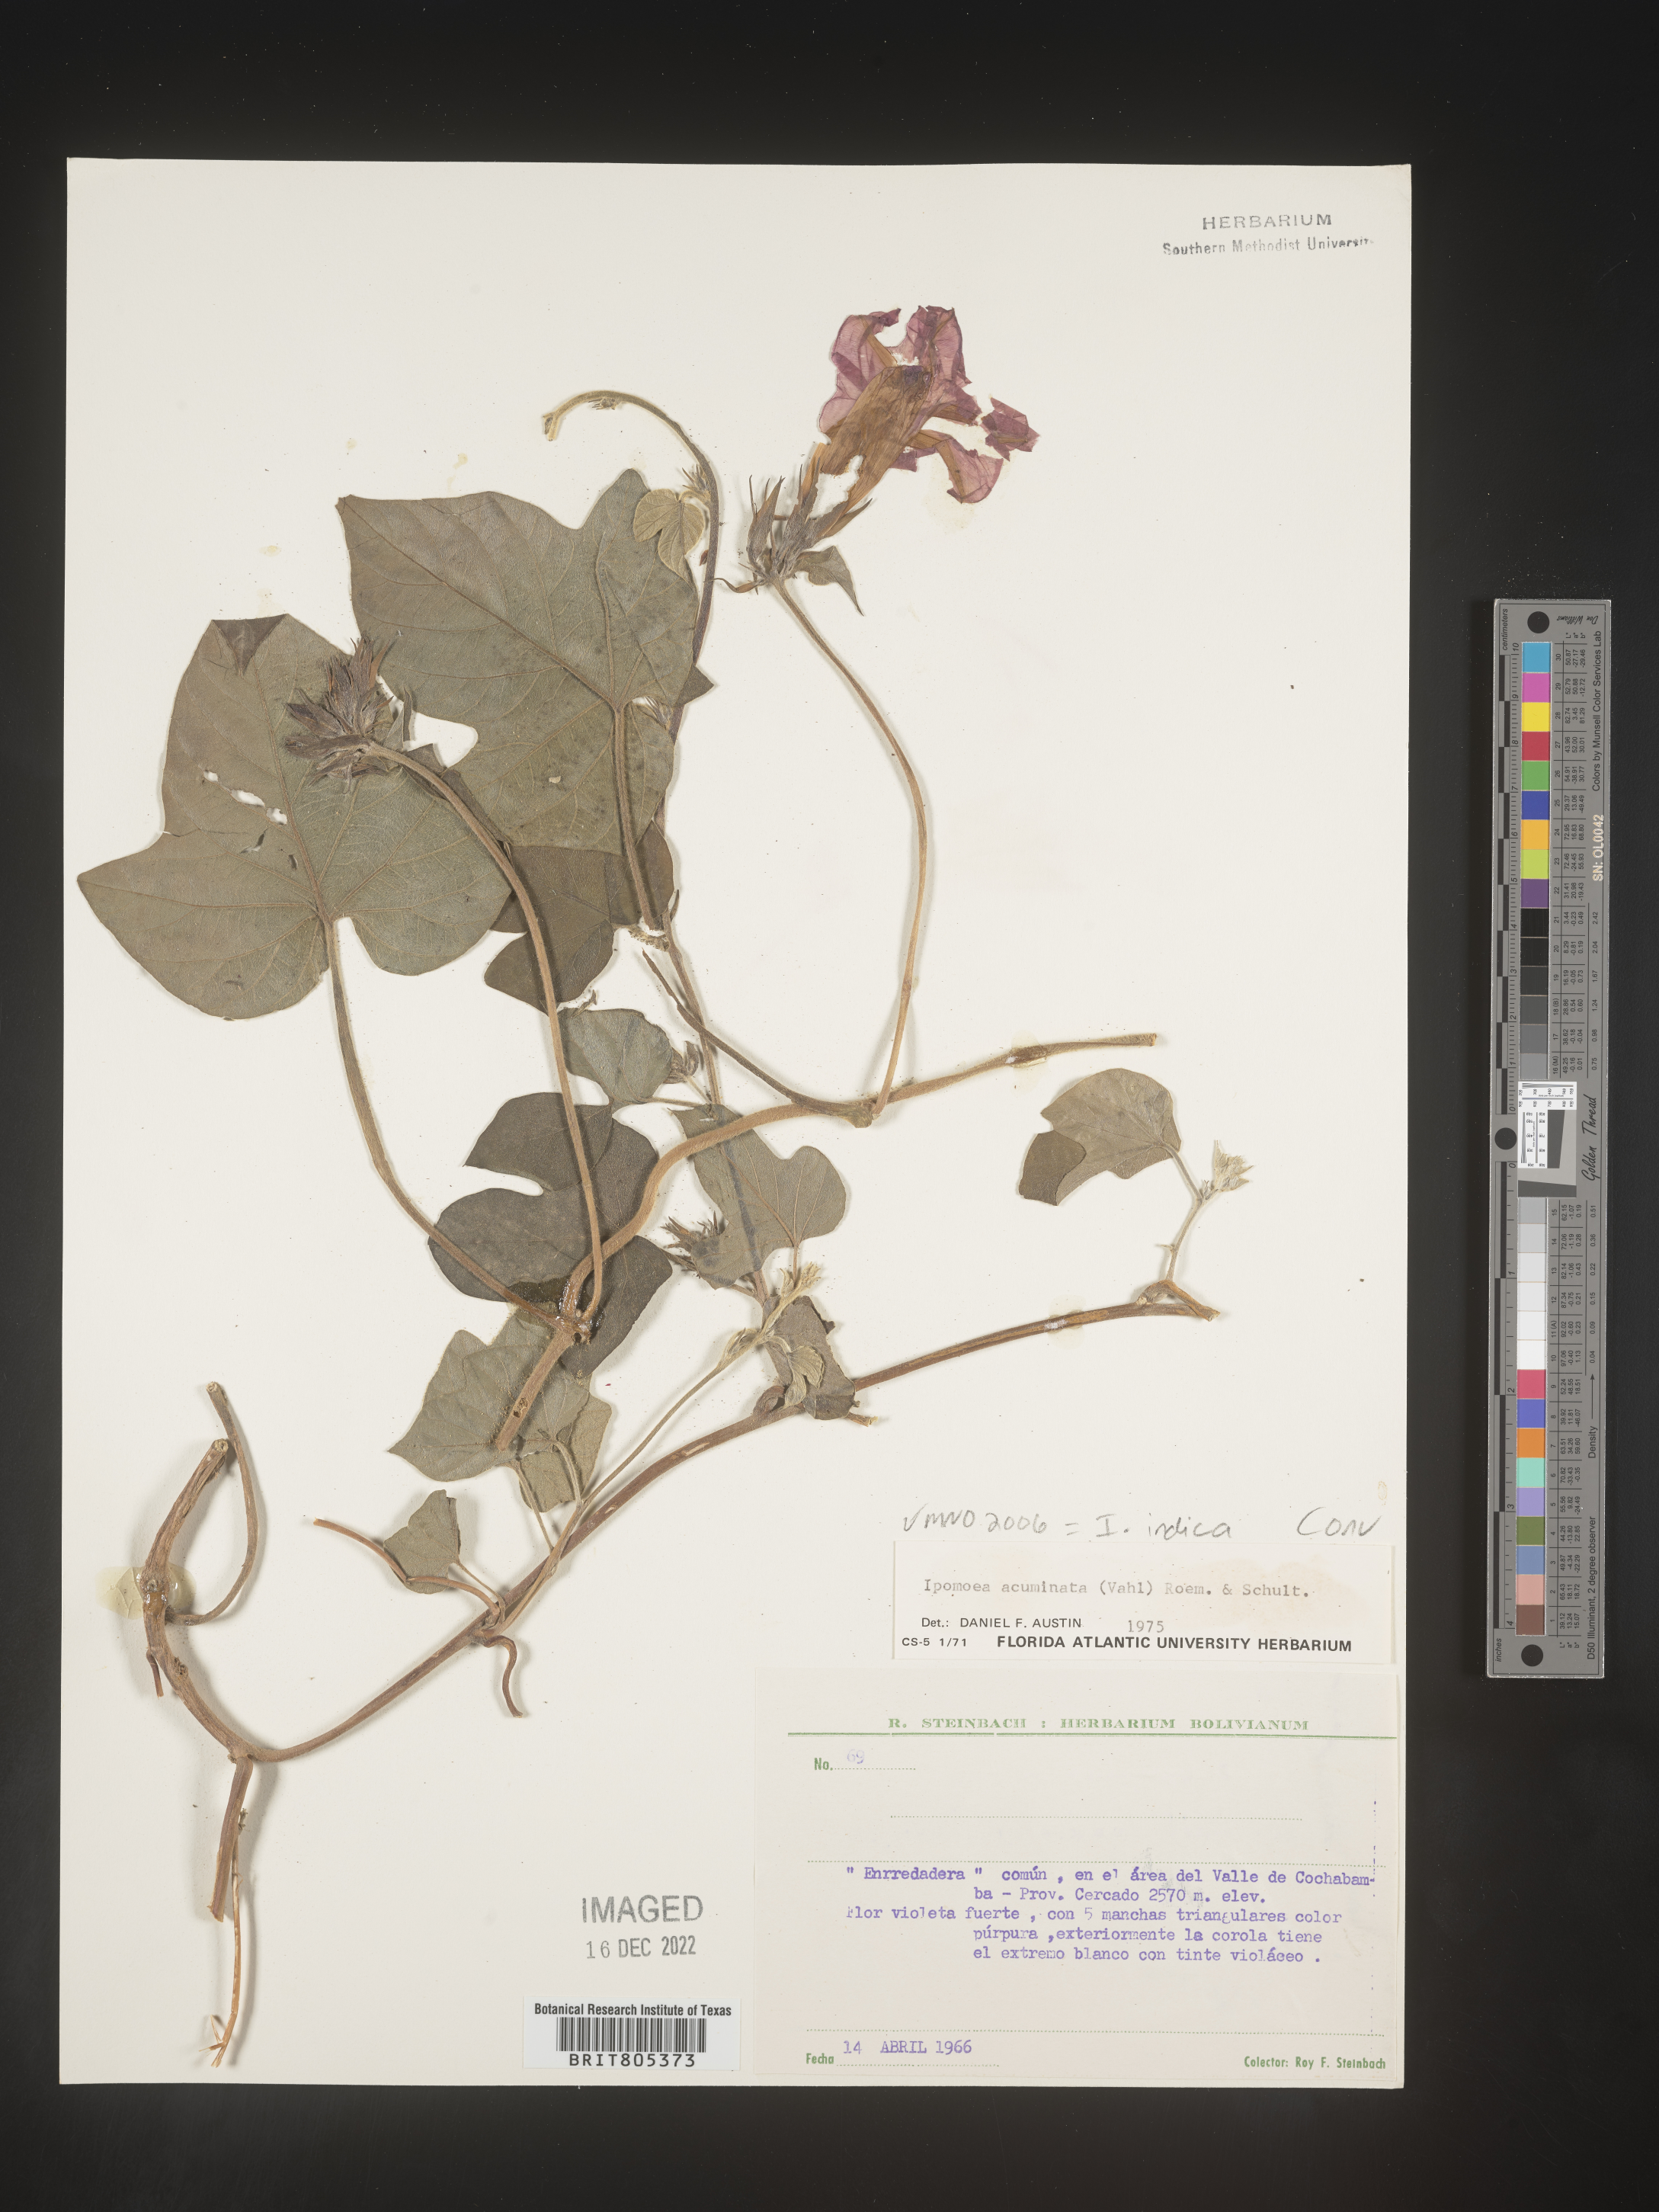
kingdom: Plantae
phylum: Tracheophyta
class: Magnoliopsida
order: Solanales
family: Convolvulaceae
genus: Ipomoea
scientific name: Ipomoea
